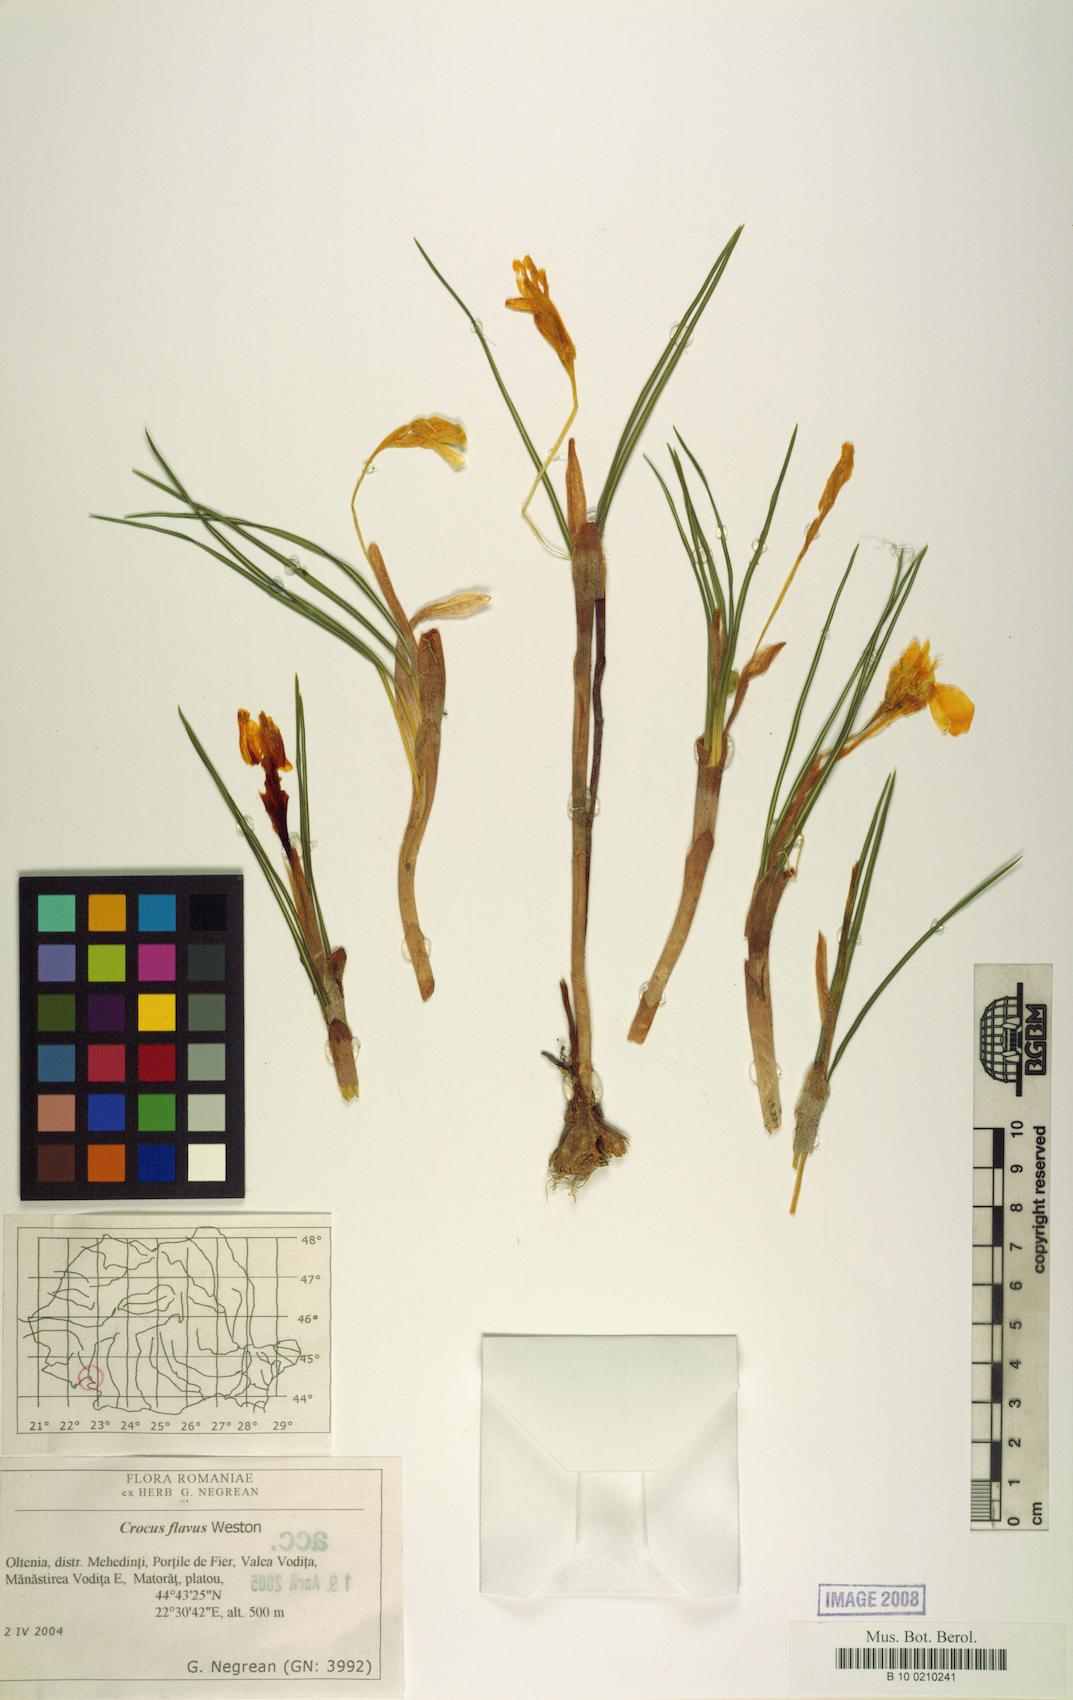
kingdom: Plantae
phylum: Tracheophyta
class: Liliopsida
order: Asparagales
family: Iridaceae
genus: Crocus
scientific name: Crocus flavus
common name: Yellow crocus
